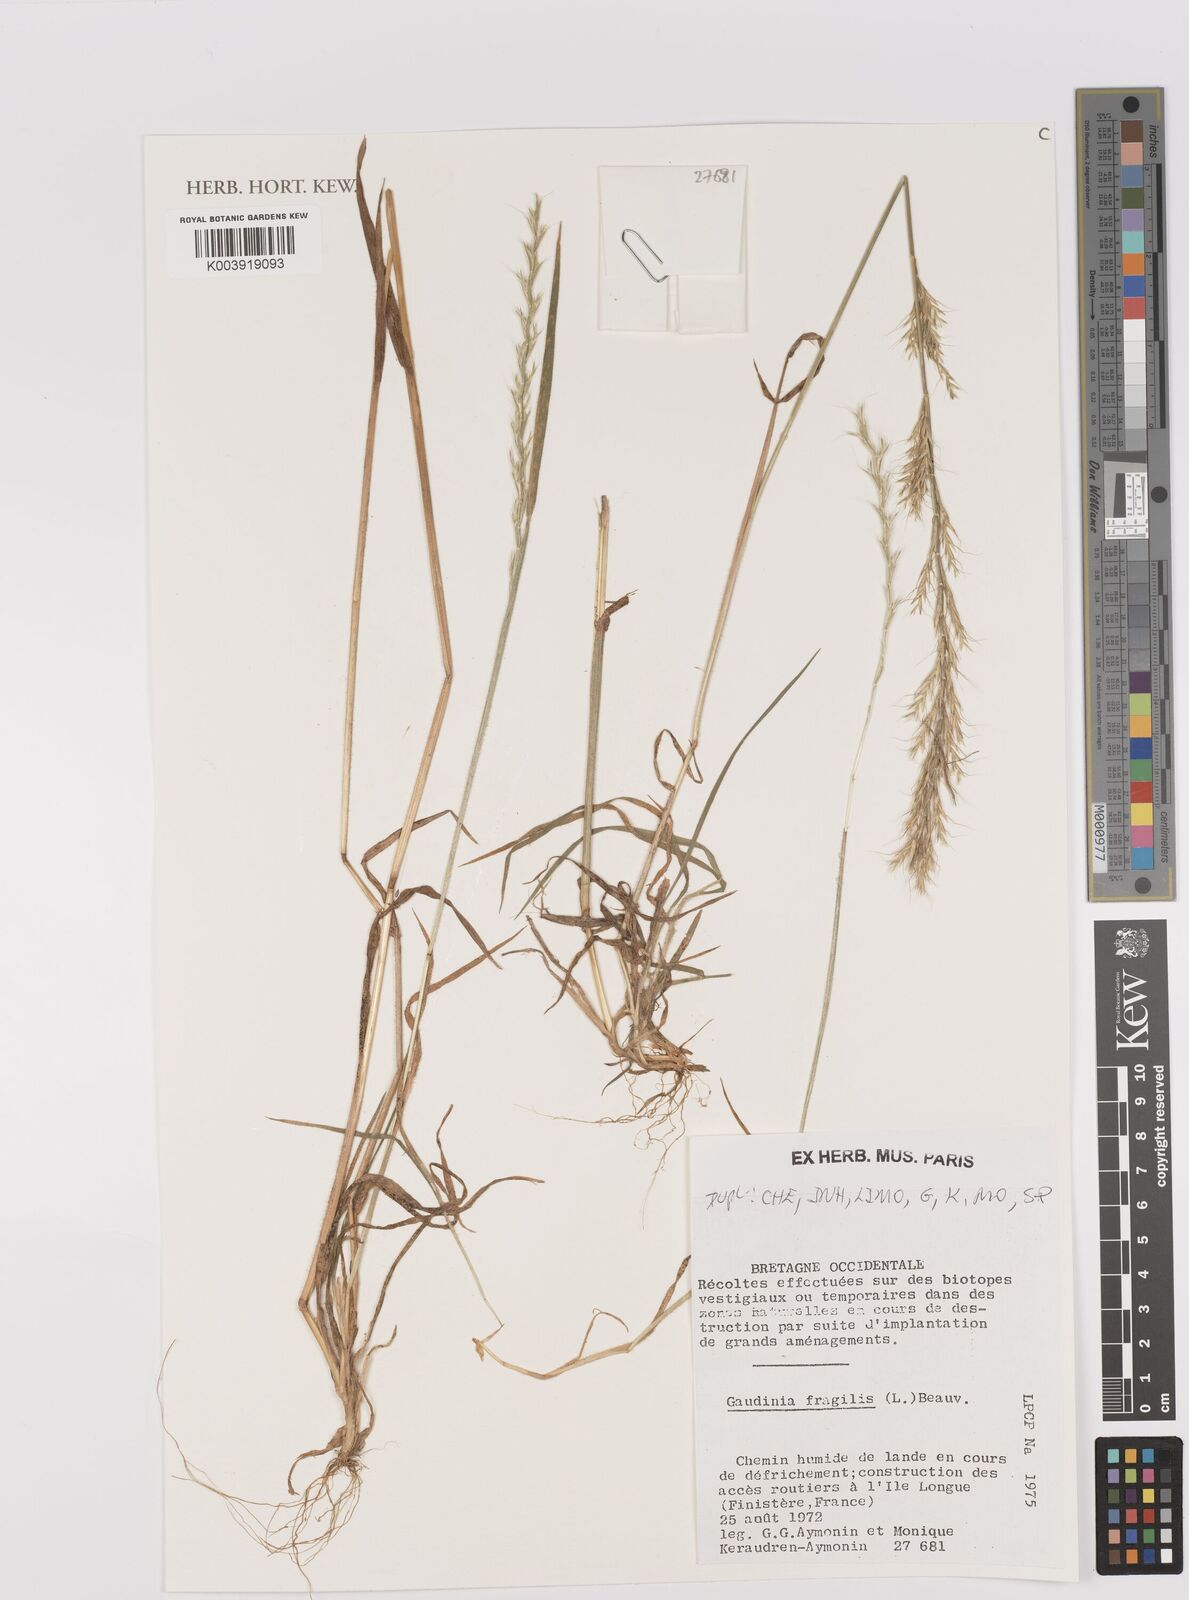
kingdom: Plantae
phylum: Tracheophyta
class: Liliopsida
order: Poales
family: Poaceae
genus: Gaudinia
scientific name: Gaudinia fragilis
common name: French oat-grass
